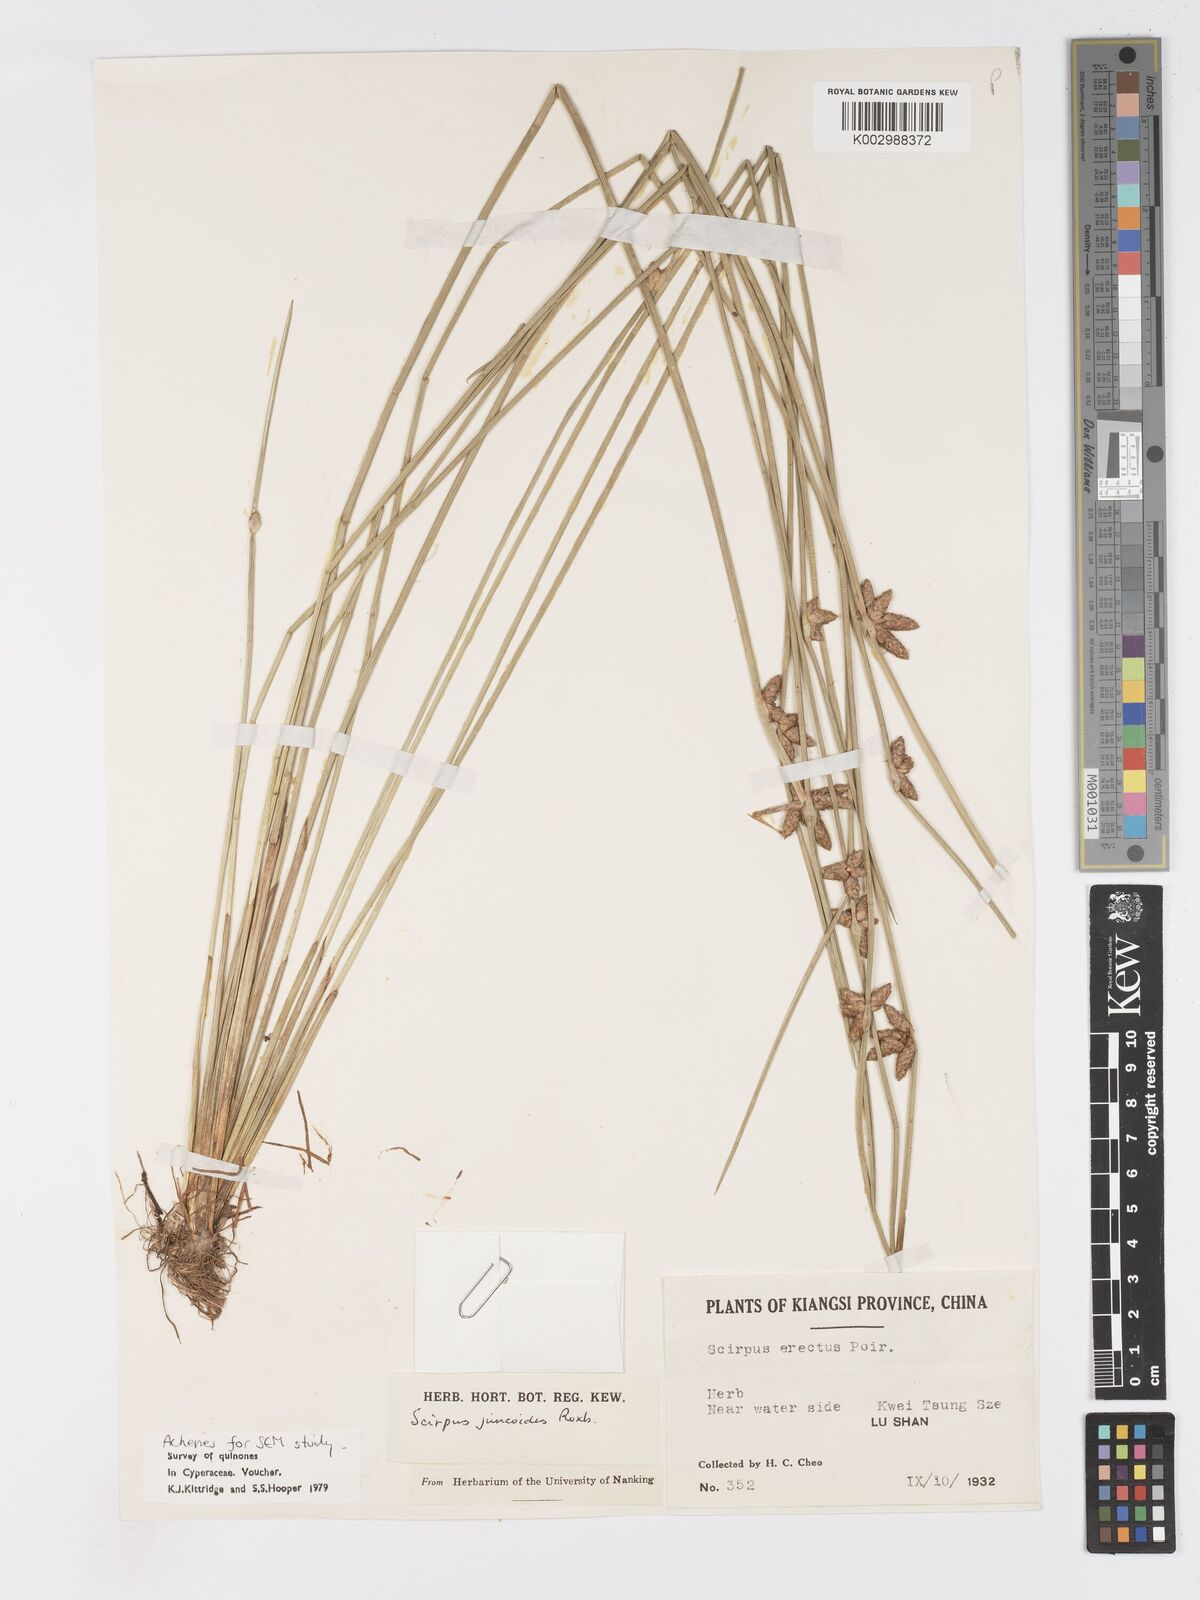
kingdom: Plantae
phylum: Tracheophyta
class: Liliopsida
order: Poales
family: Cyperaceae
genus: Schoenoplectiella
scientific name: Schoenoplectiella juncoides
